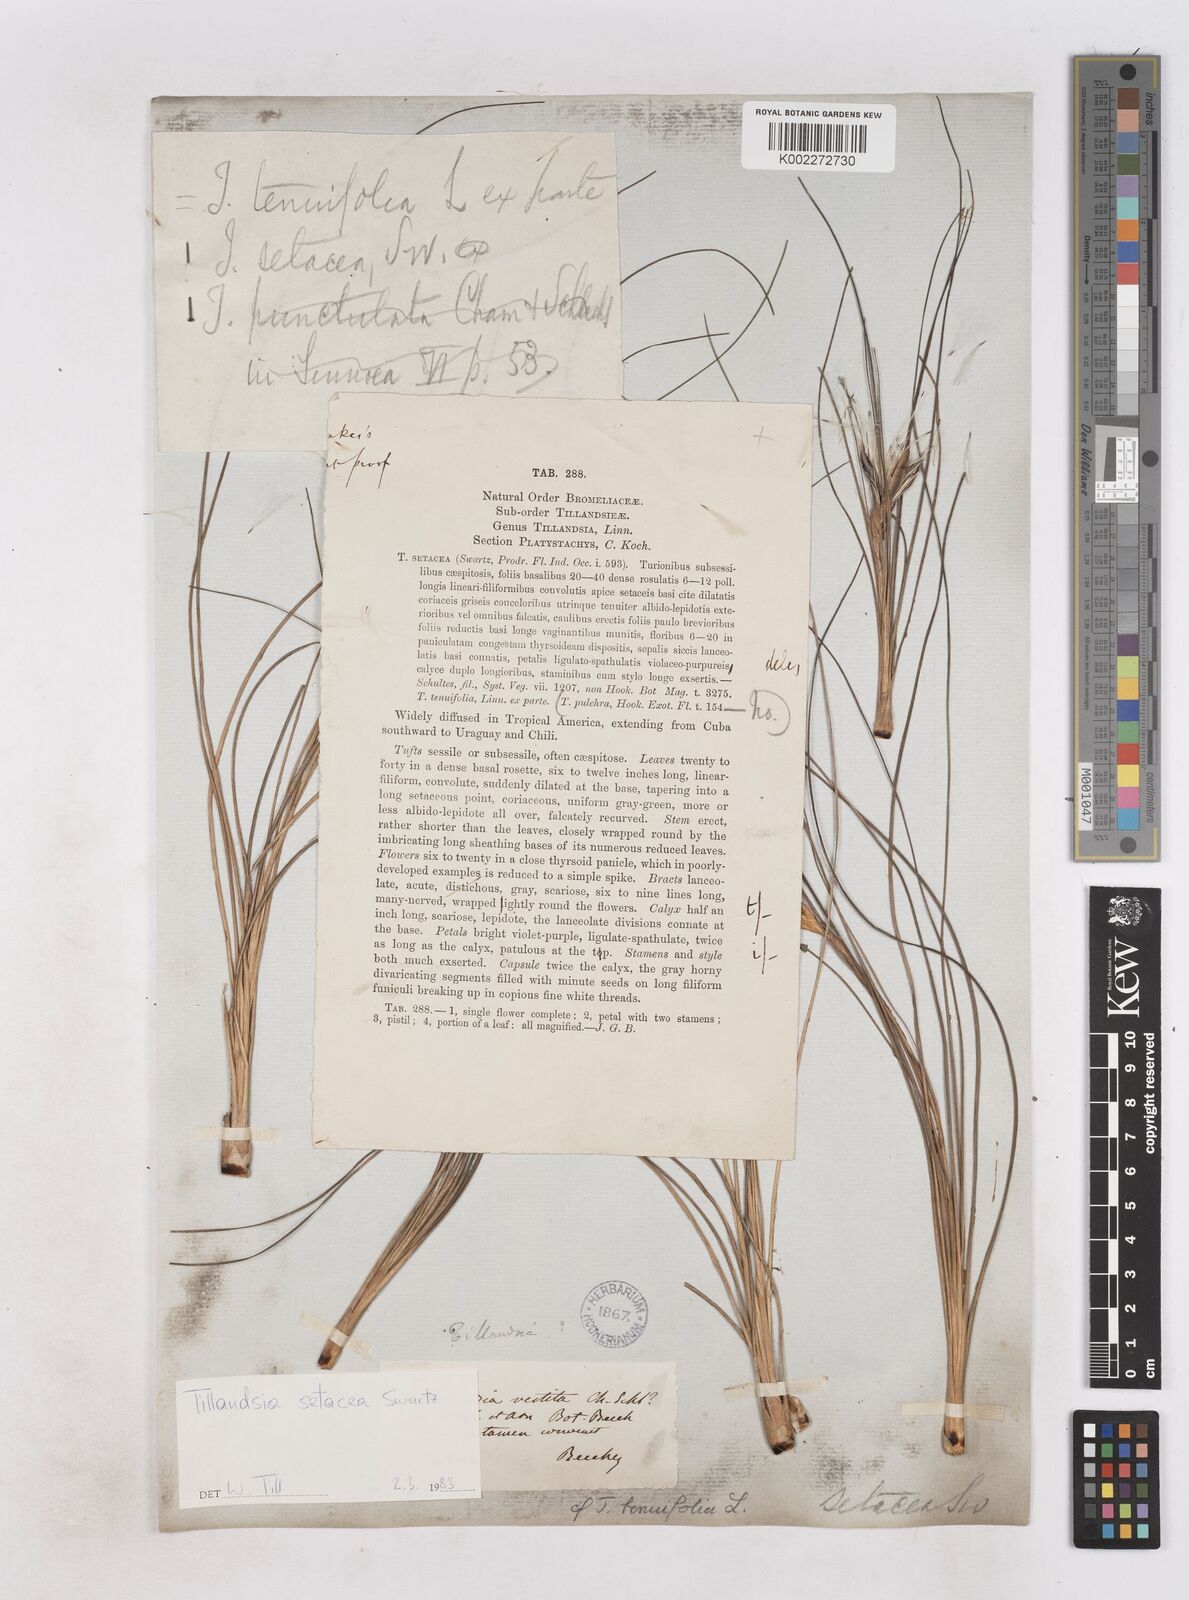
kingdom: Plantae
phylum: Tracheophyta
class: Liliopsida
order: Poales
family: Bromeliaceae
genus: Tillandsia
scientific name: Tillandsia setacea
